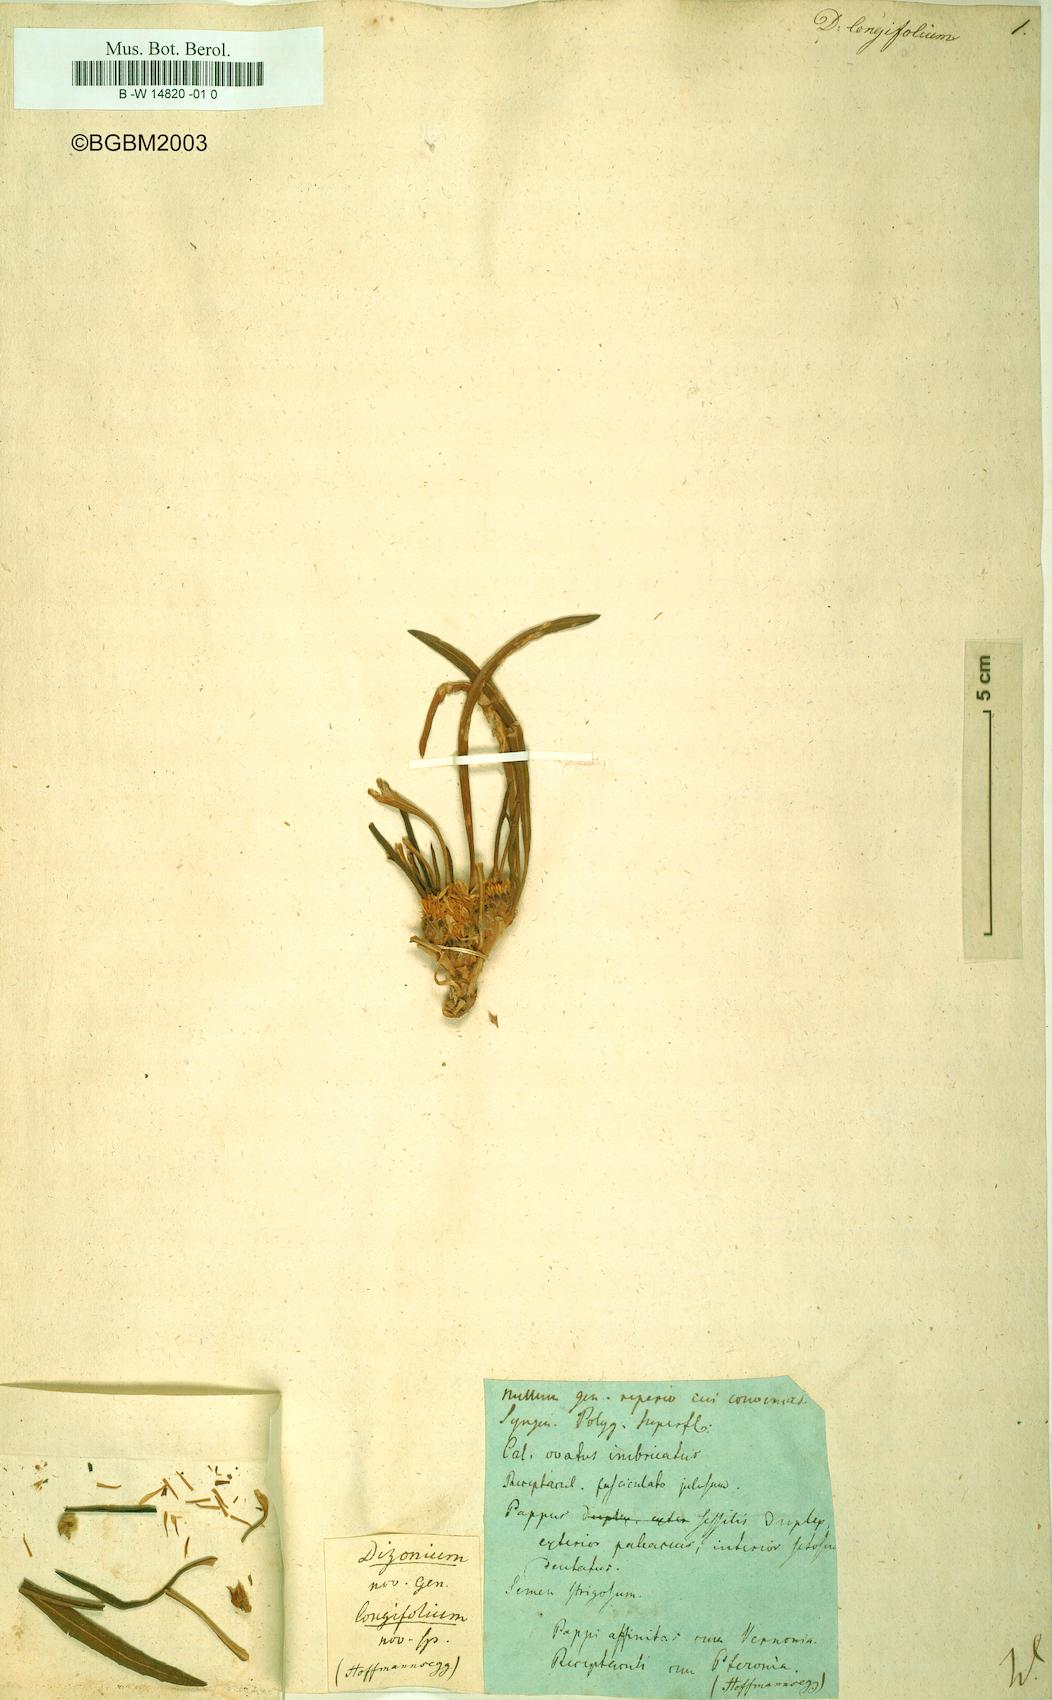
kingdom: Plantae
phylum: Tracheophyta
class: Magnoliopsida
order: Asterales
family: Asteraceae
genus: Geigeria
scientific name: Geigeria
